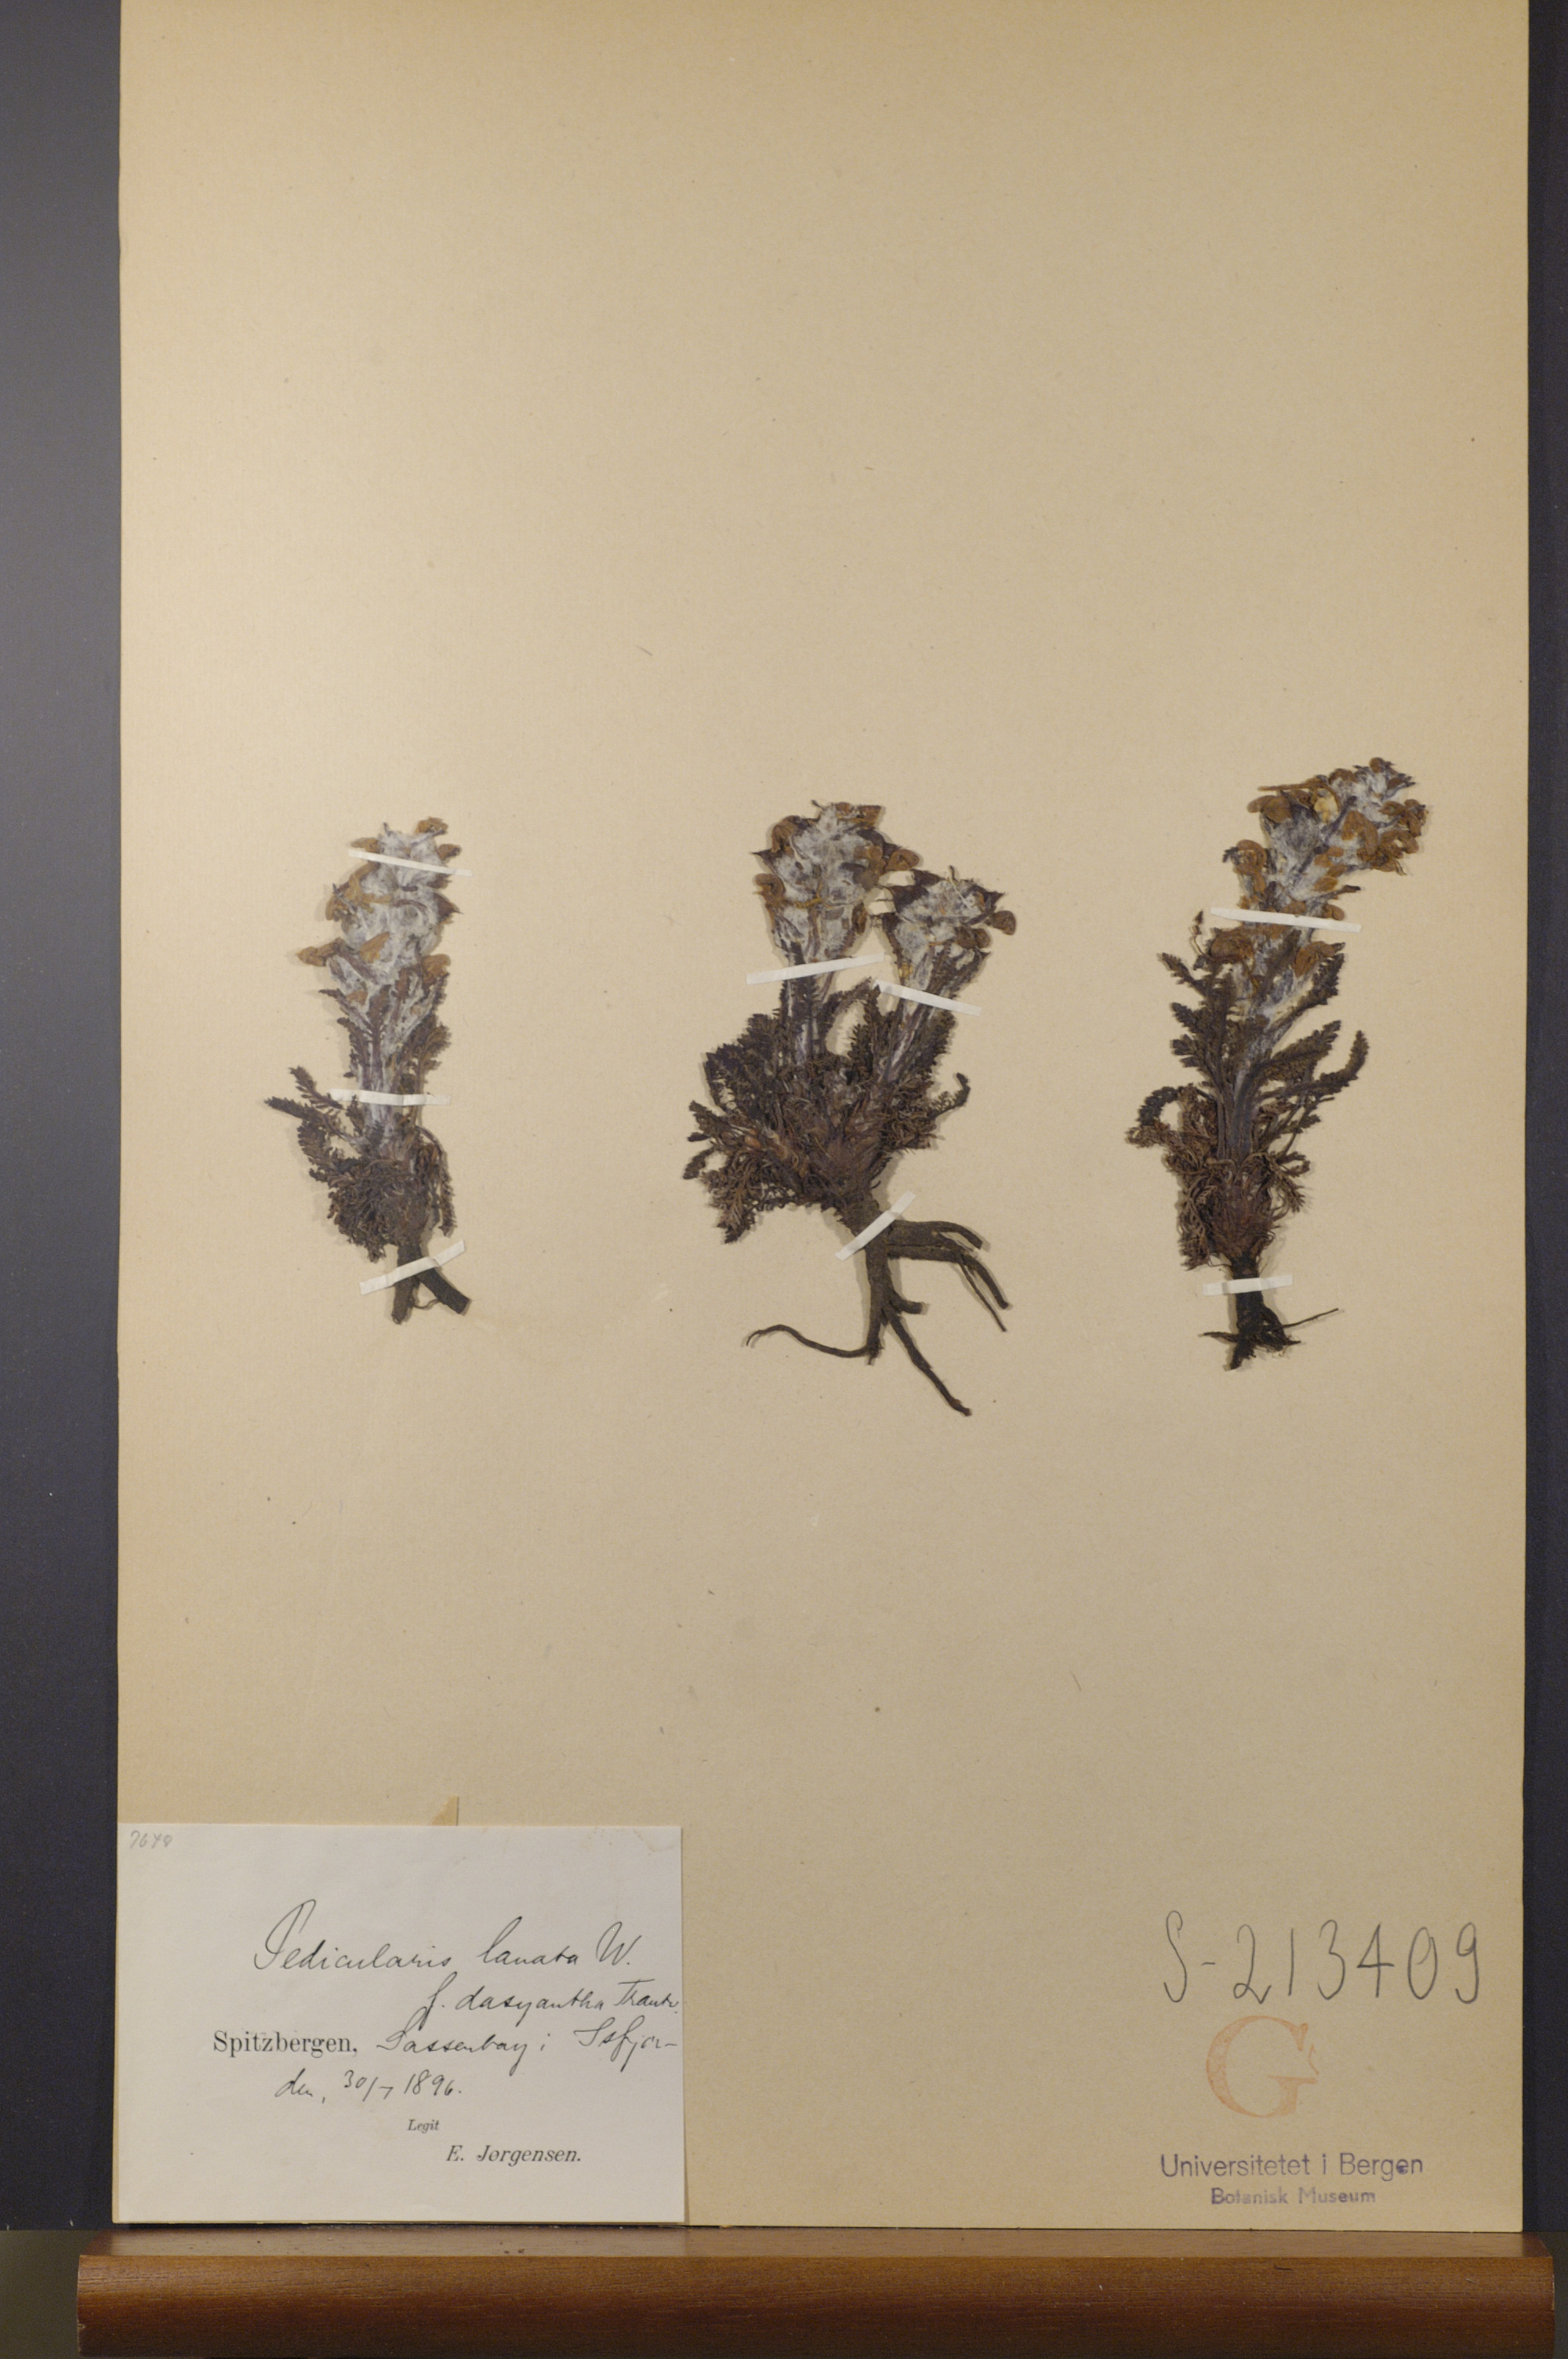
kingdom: Plantae
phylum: Tracheophyta
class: Magnoliopsida
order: Lamiales
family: Orobanchaceae
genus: Pedicularis
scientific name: Pedicularis dasyantha
